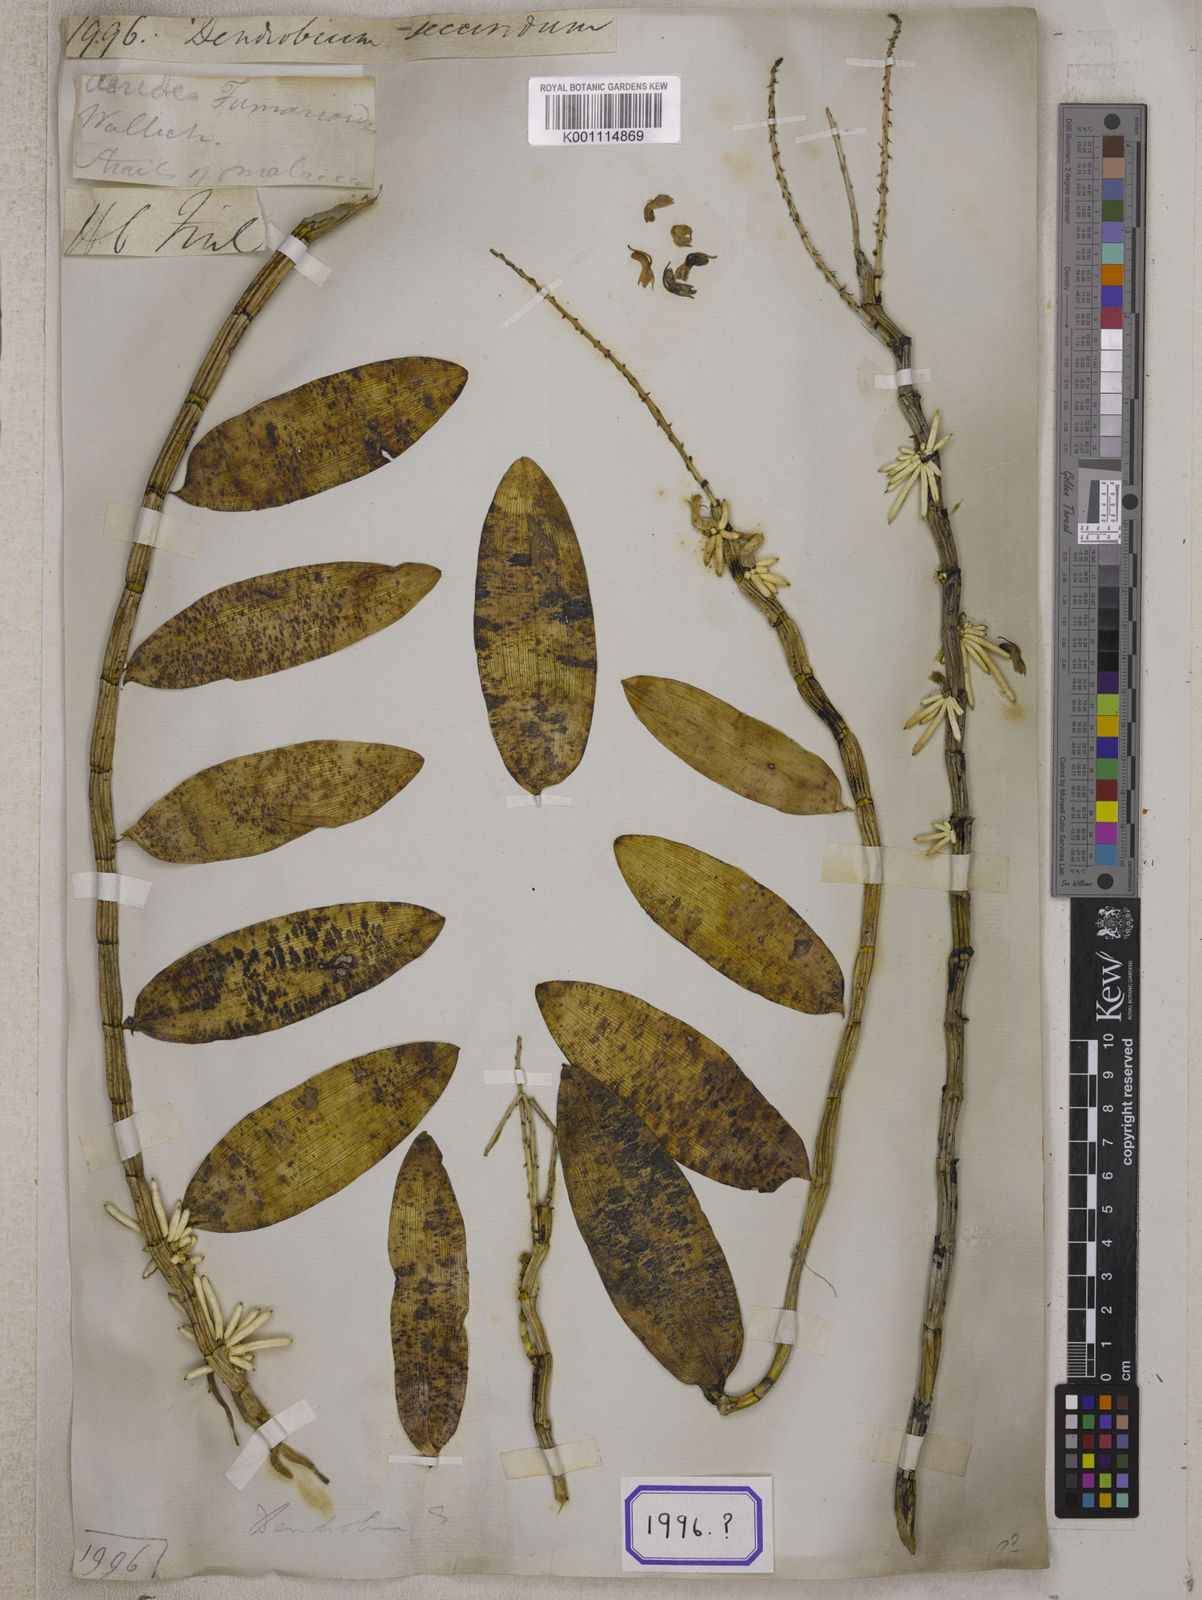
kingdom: Plantae
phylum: Tracheophyta
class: Liliopsida
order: Asparagales
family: Orchidaceae
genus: Dendrobium
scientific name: Dendrobium
